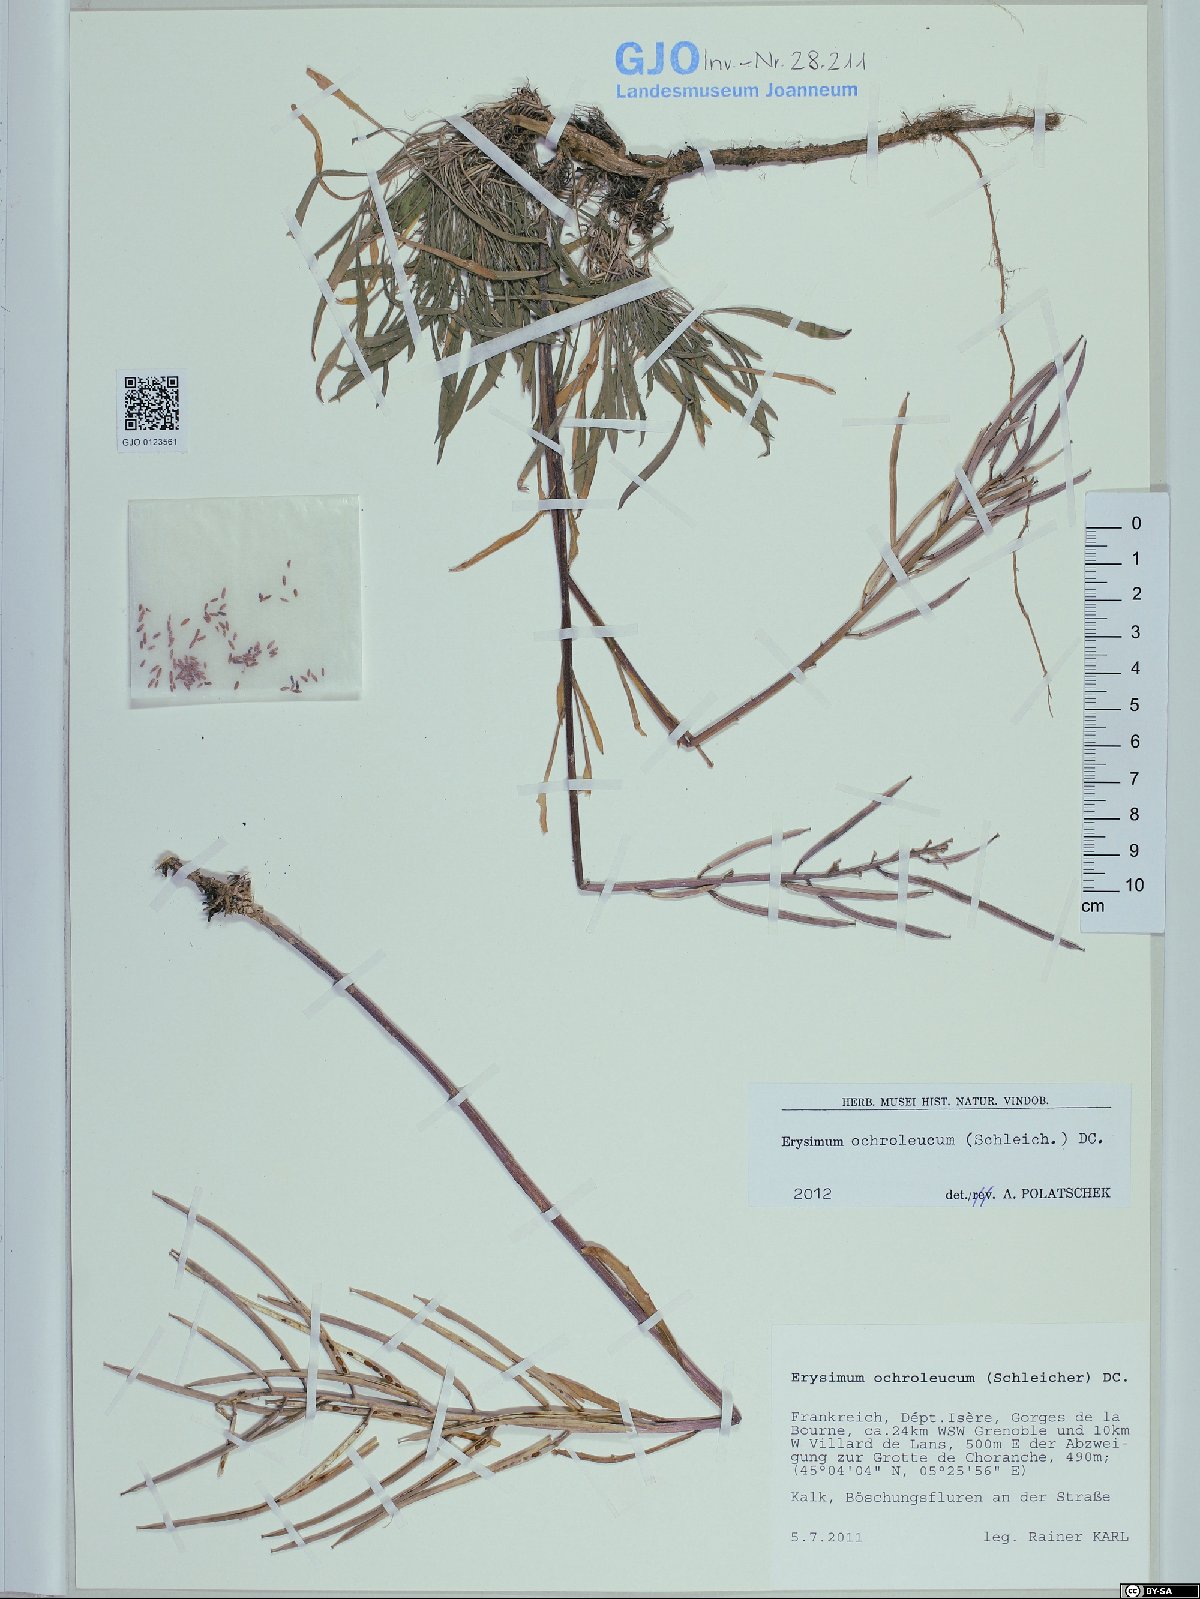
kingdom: Plantae
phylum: Tracheophyta
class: Magnoliopsida
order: Brassicales
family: Brassicaceae
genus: Erysimum
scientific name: Erysimum humile
